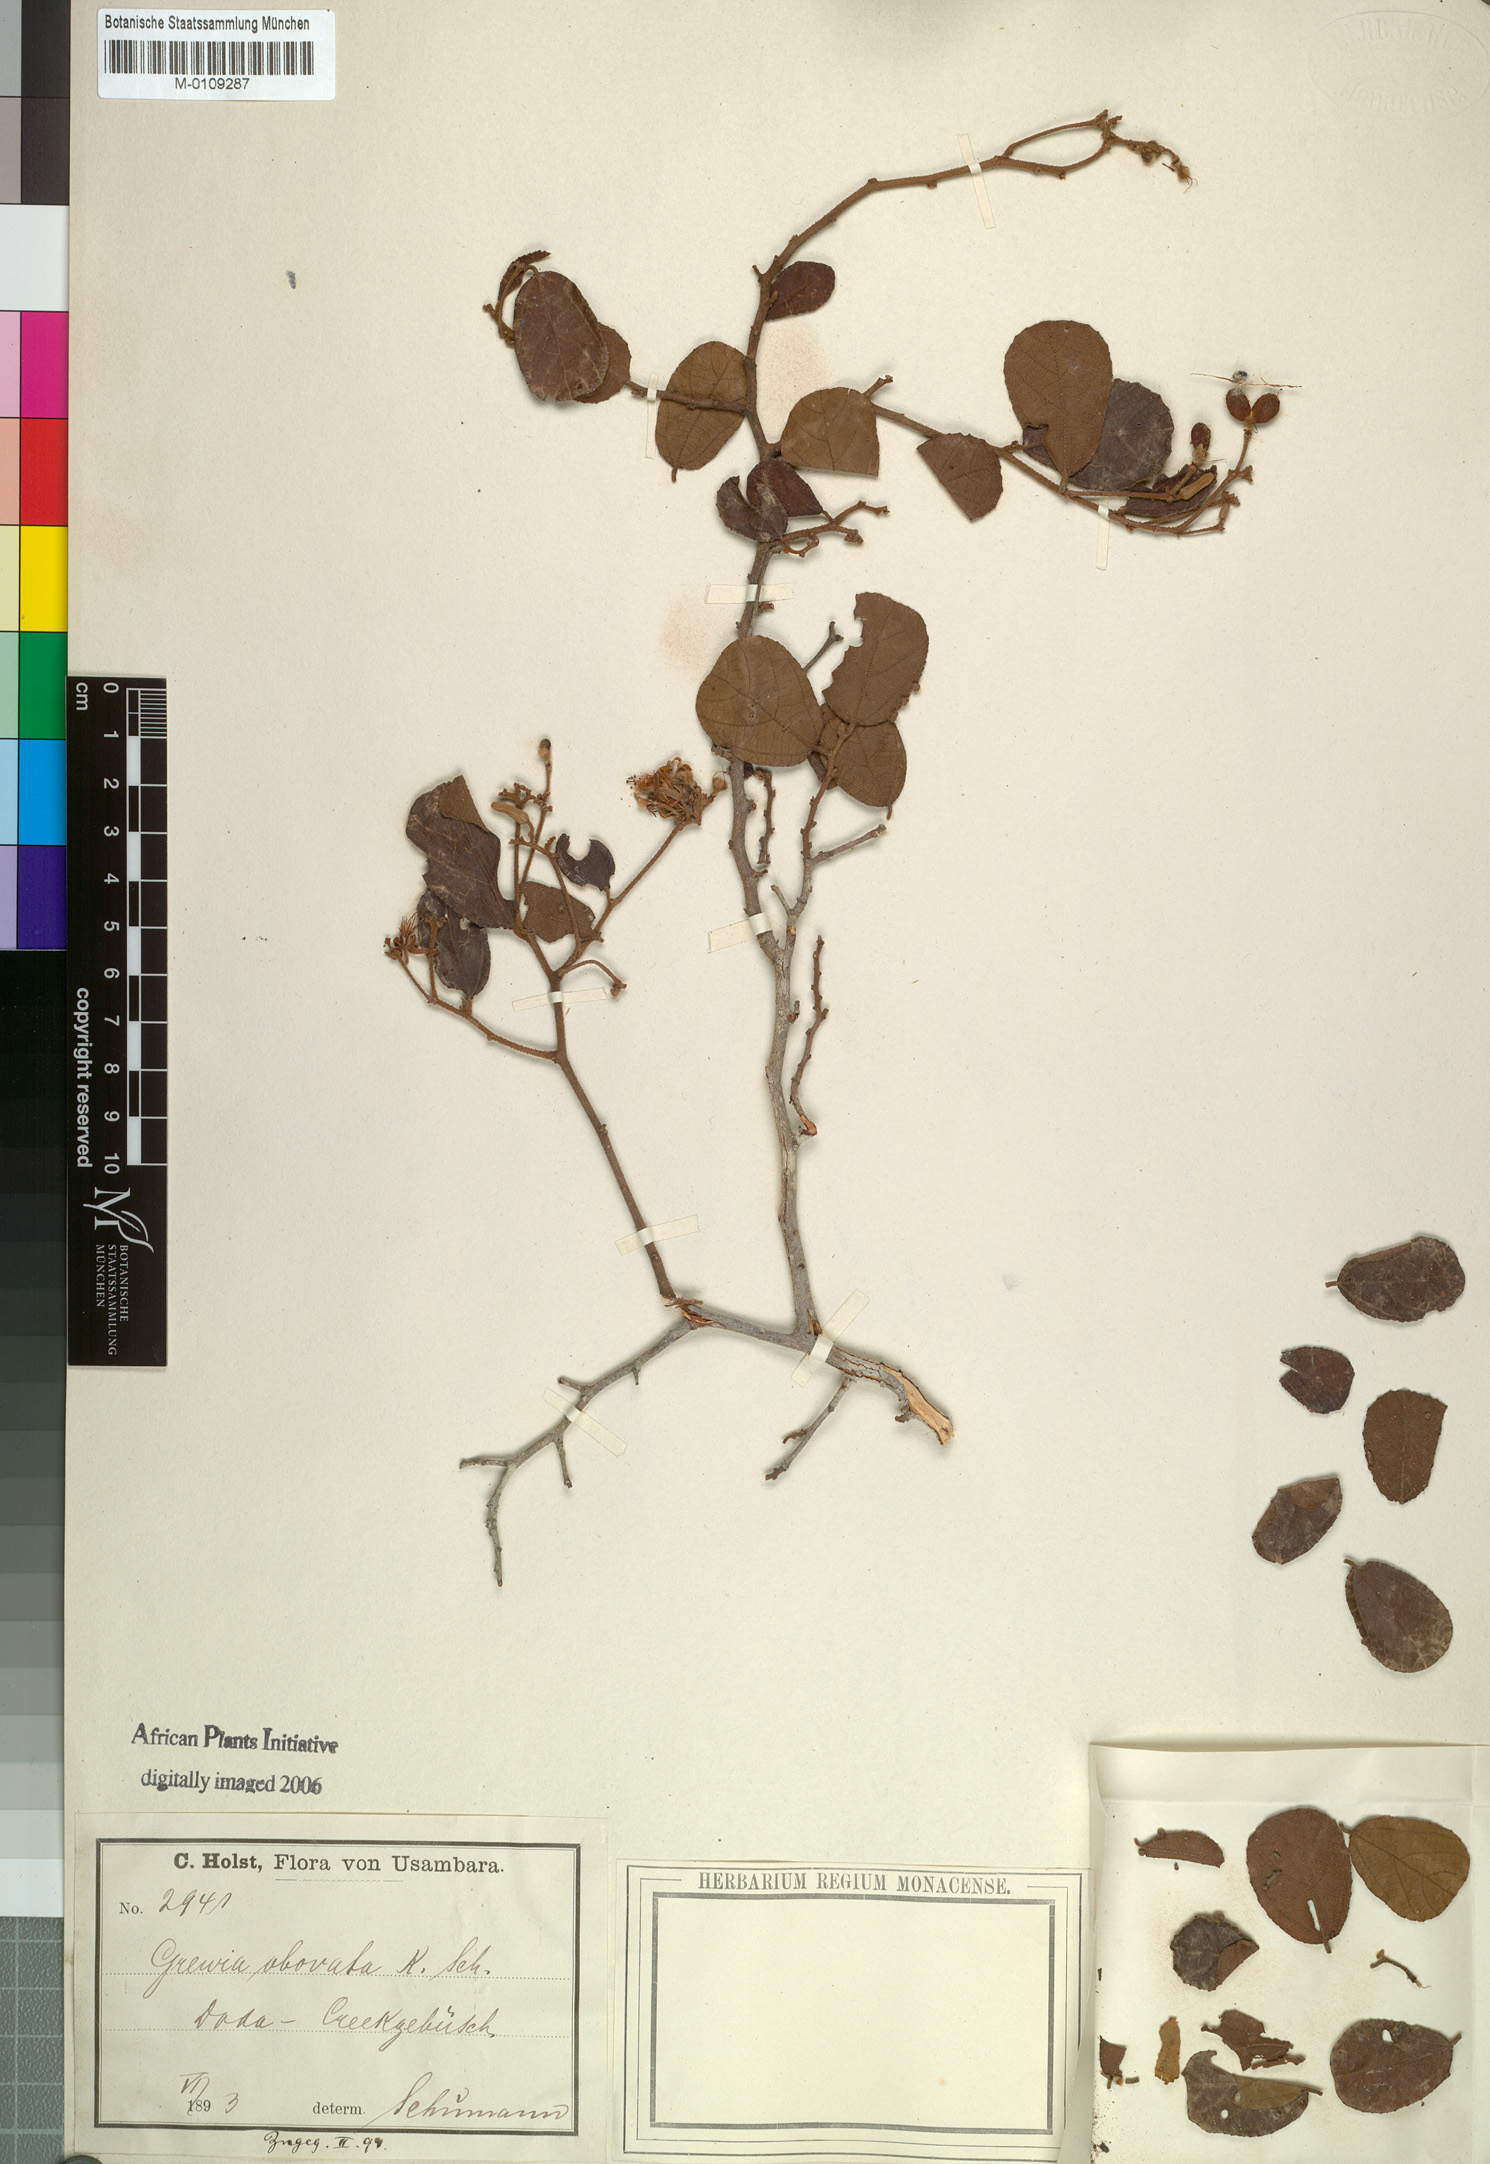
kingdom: Plantae
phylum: Tracheophyta
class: Magnoliopsida
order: Malvales
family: Malvaceae
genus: Grewia
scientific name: Grewia apetala
